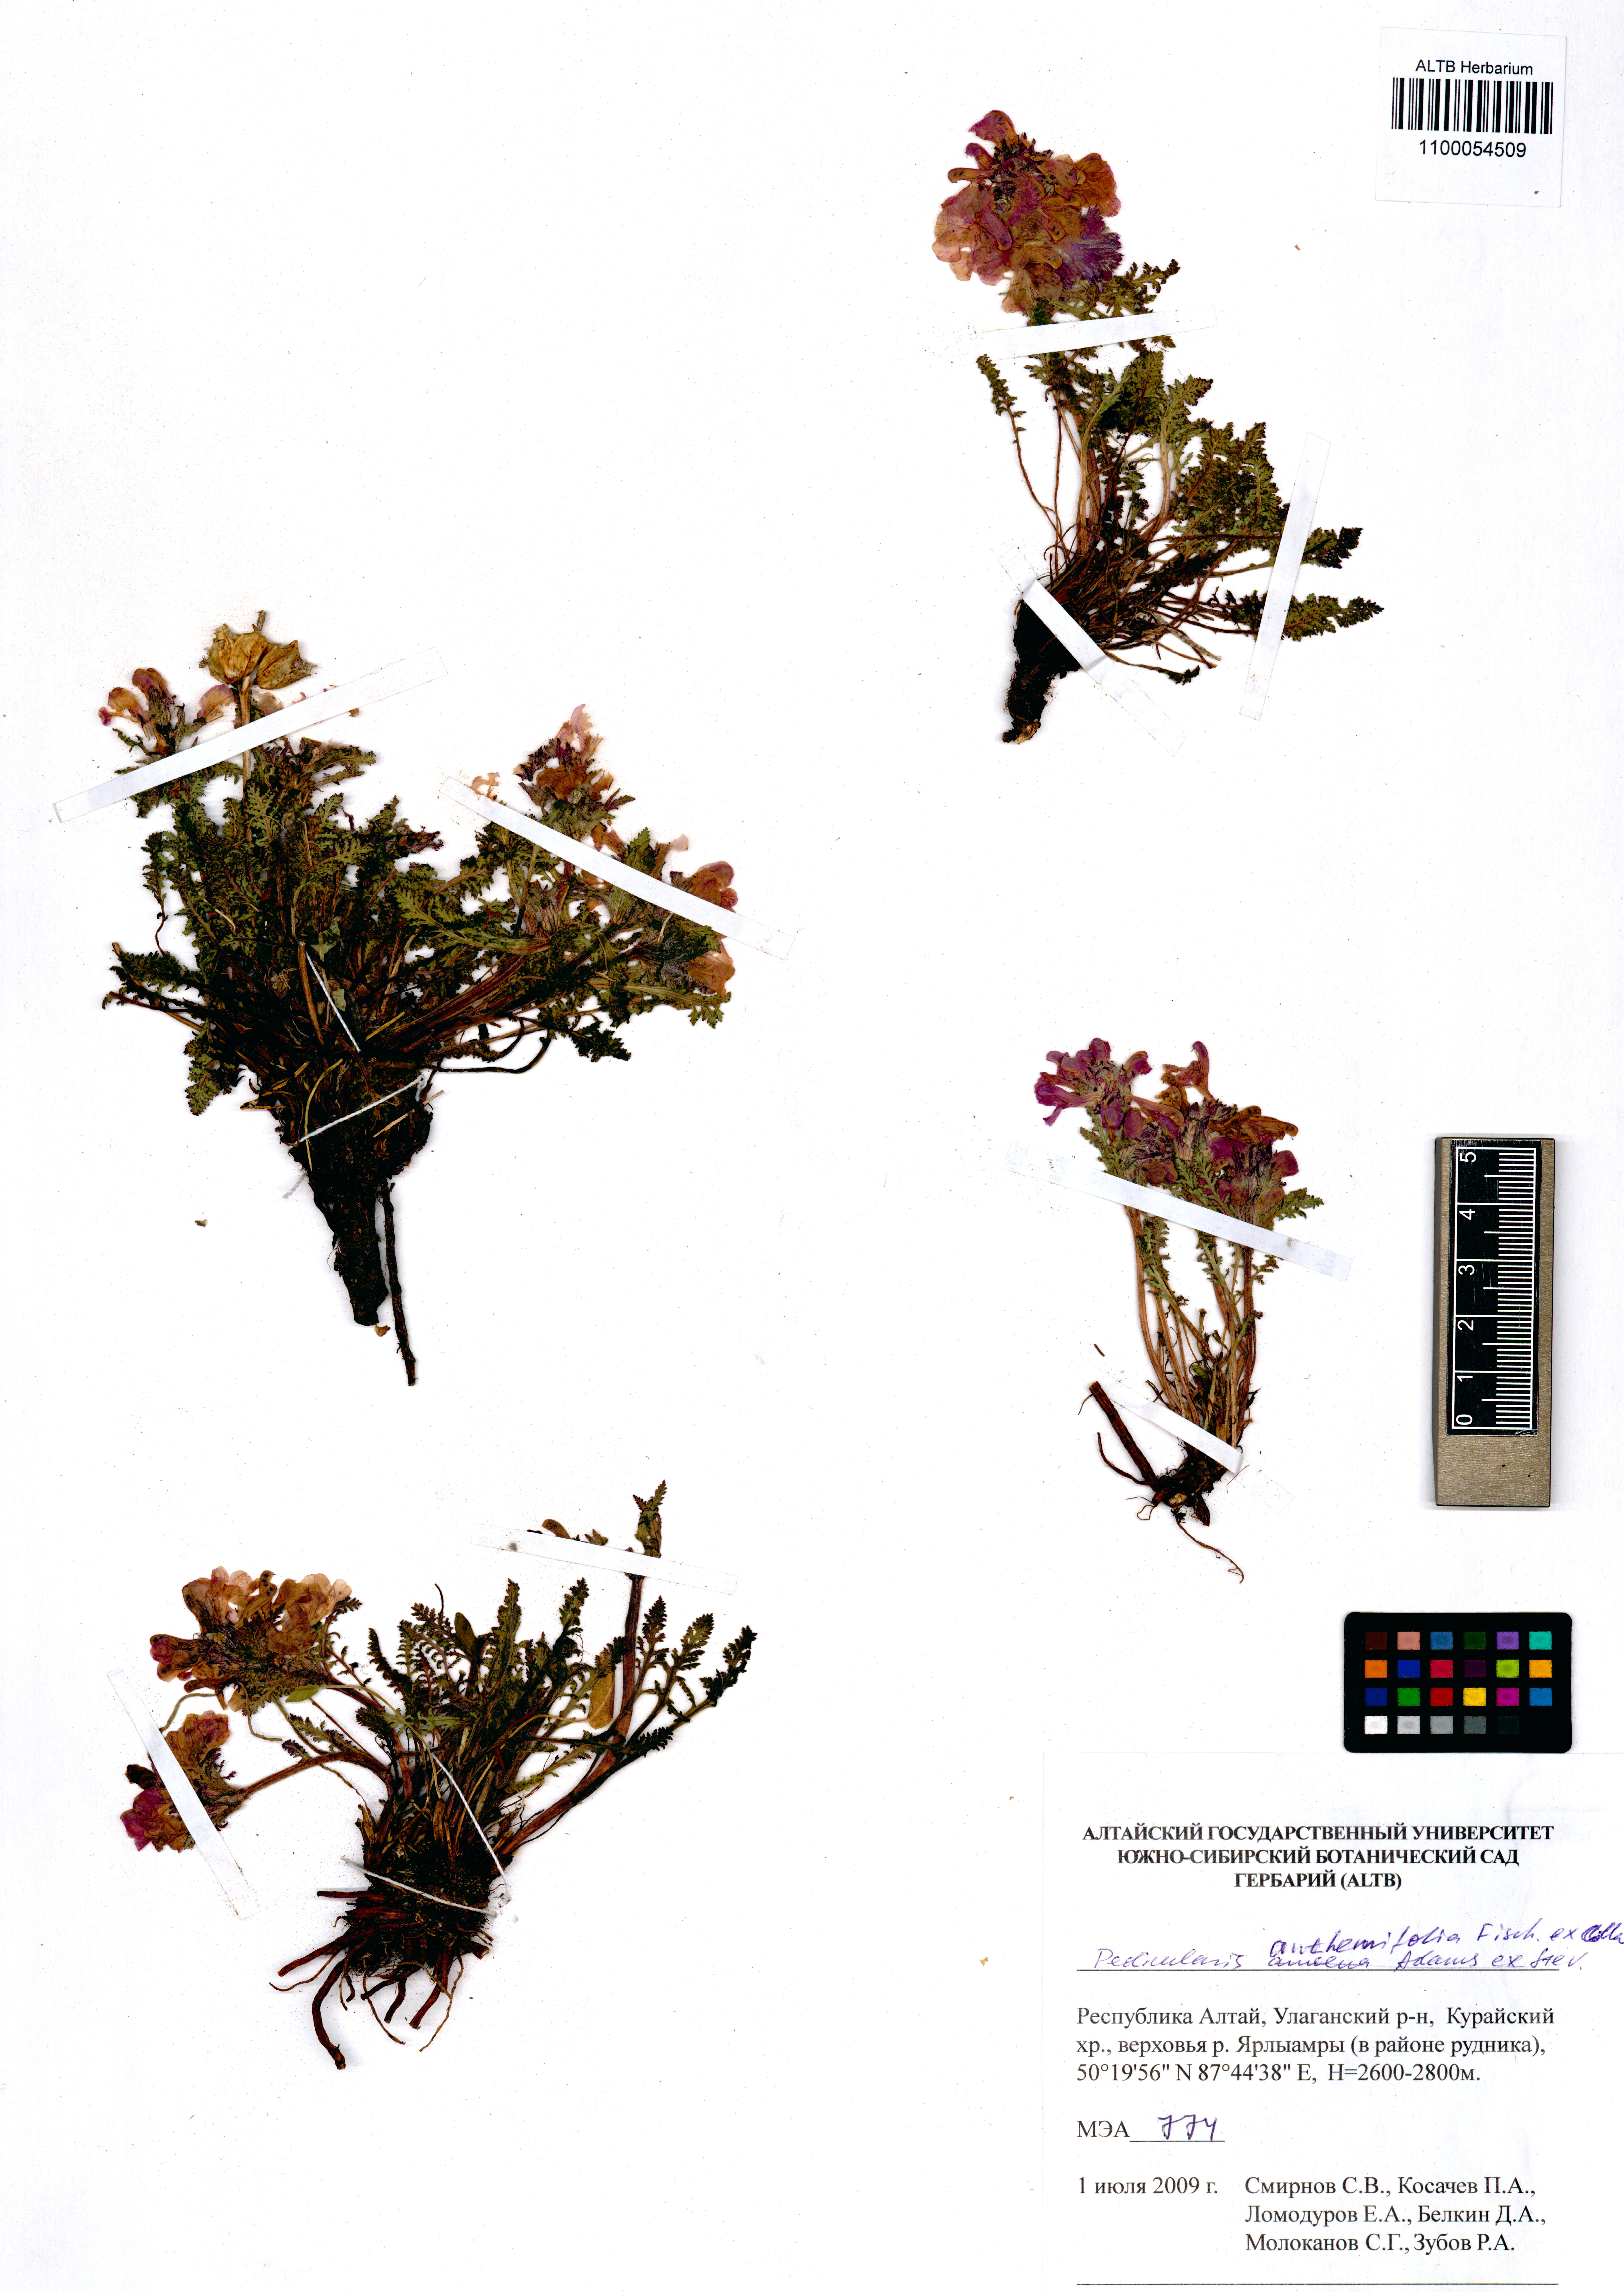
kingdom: Plantae
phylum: Tracheophyta
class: Magnoliopsida
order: Lamiales
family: Orobanchaceae
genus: Pedicularis
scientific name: Pedicularis anthemifolia
